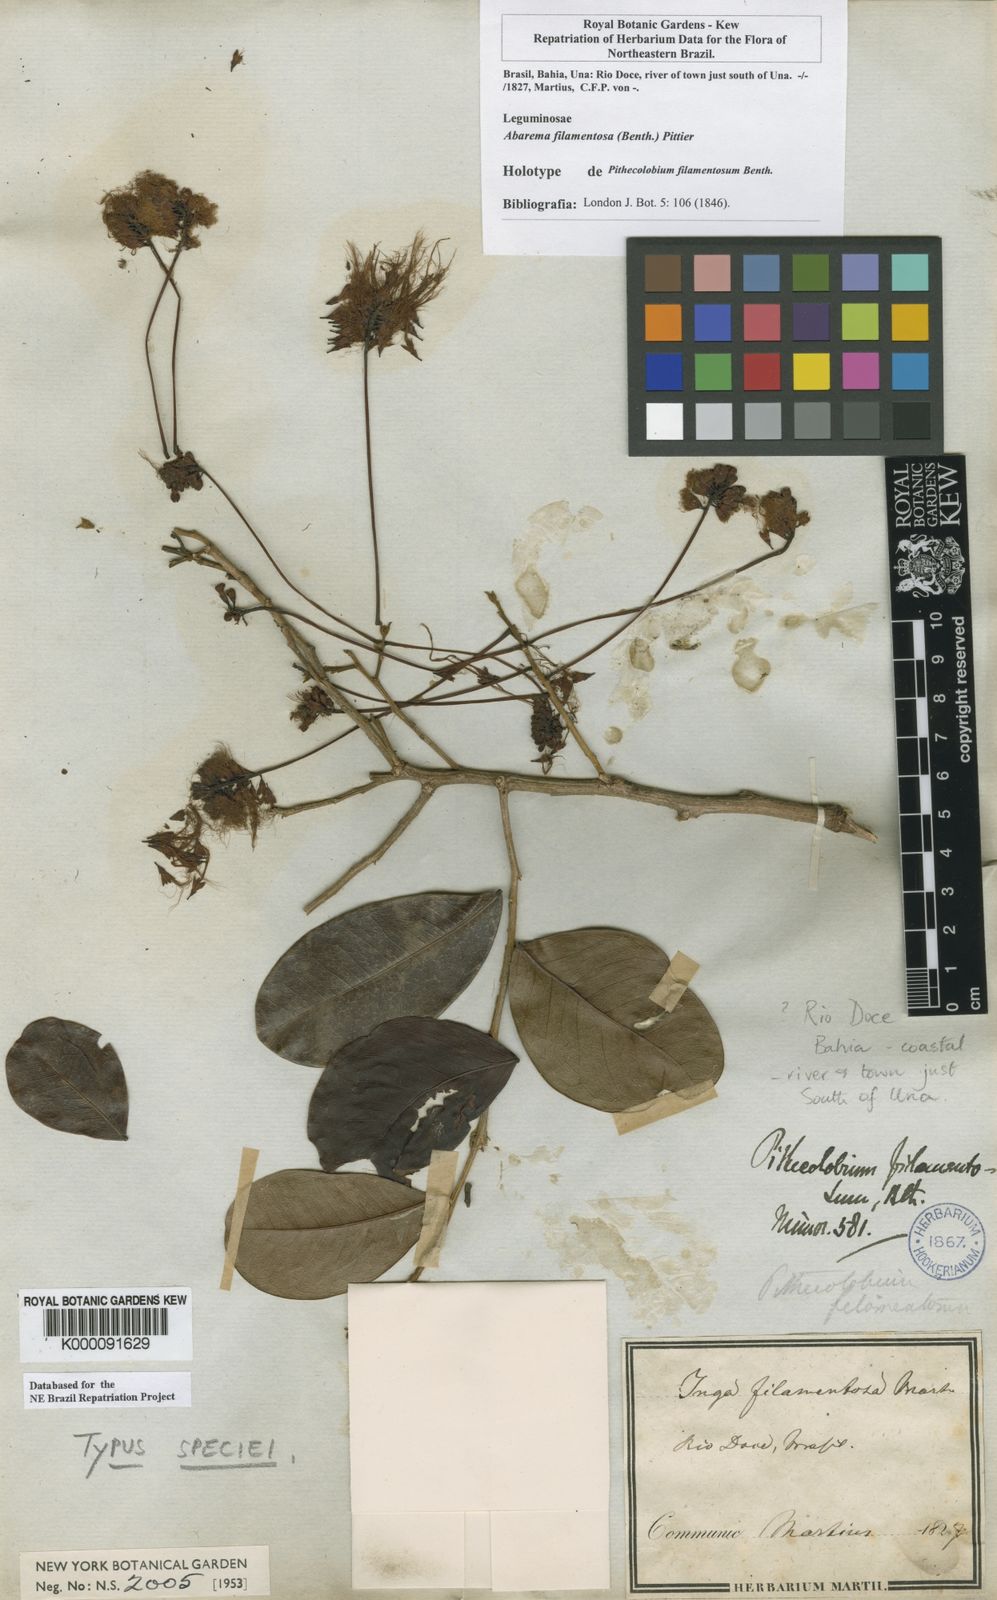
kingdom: Plantae
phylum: Tracheophyta
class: Magnoliopsida
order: Fabales
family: Fabaceae
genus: Jupunba
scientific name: Jupunba filamentosa
